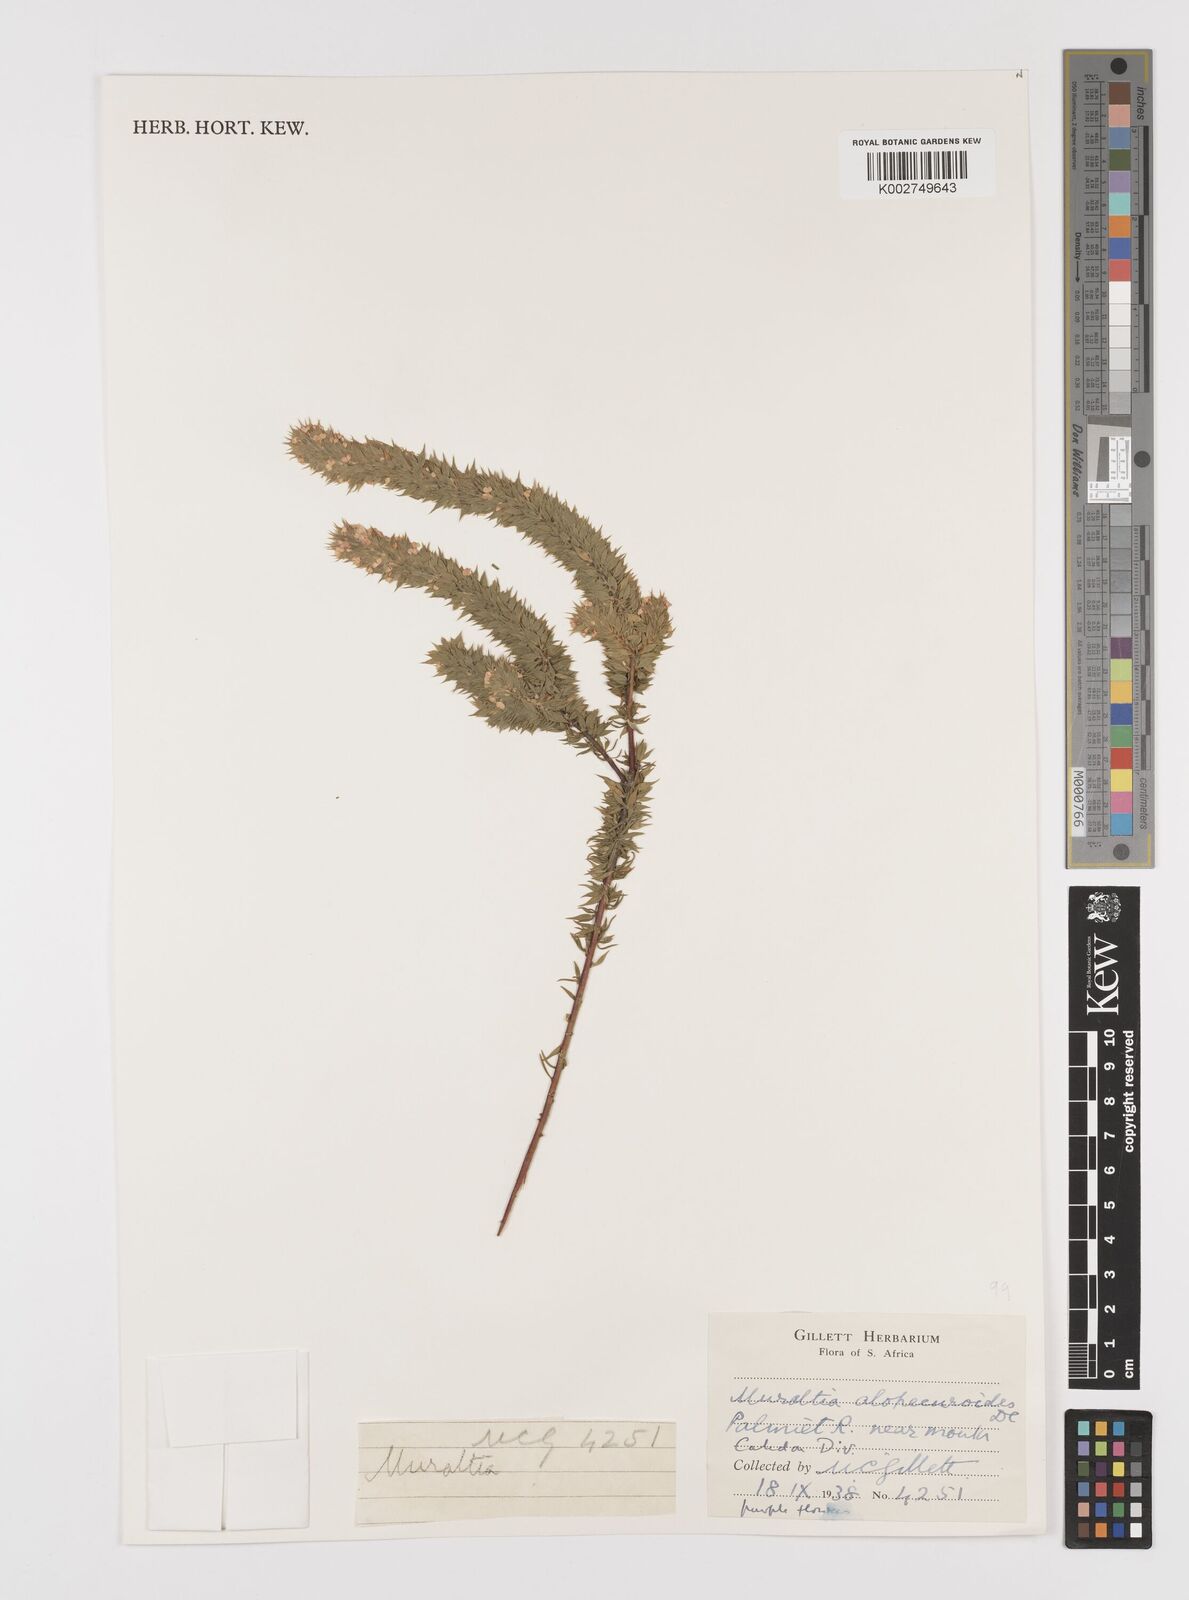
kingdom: Plantae
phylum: Tracheophyta
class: Magnoliopsida
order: Fabales
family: Polygalaceae
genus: Muraltia
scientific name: Muraltia alopecuroides
